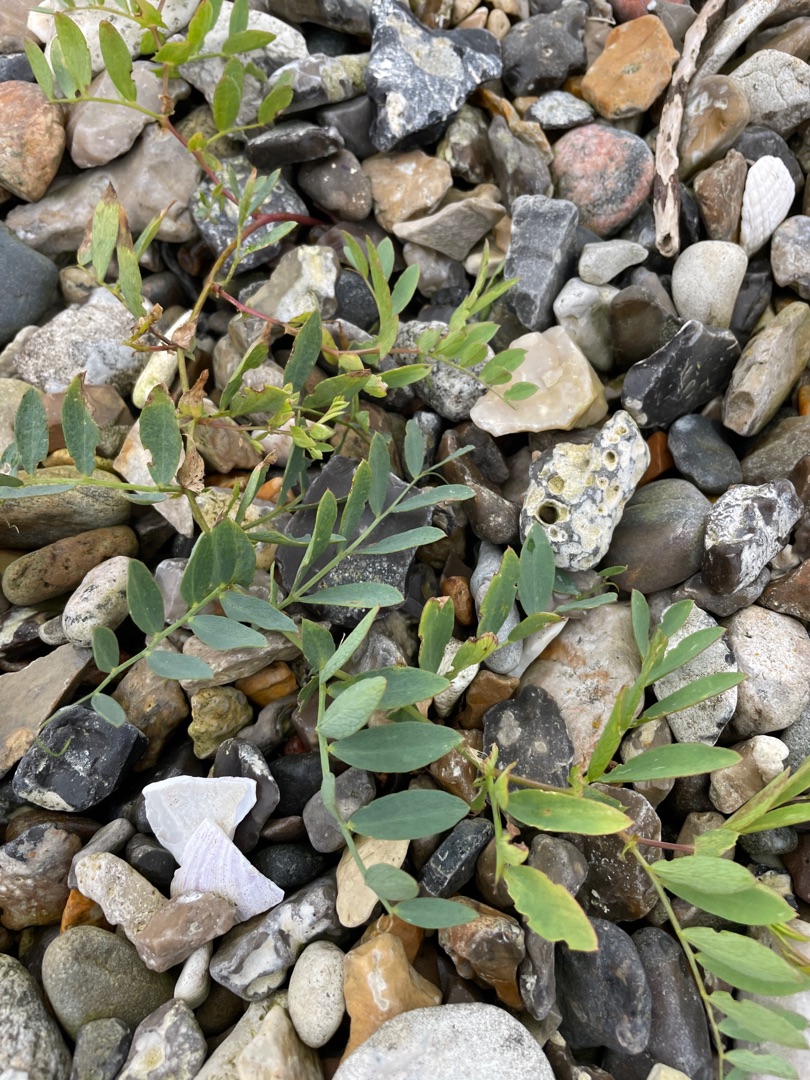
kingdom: Plantae
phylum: Tracheophyta
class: Magnoliopsida
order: Fabales
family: Fabaceae
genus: Lathyrus
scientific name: Lathyrus japonicus
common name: Strand-fladbælg
